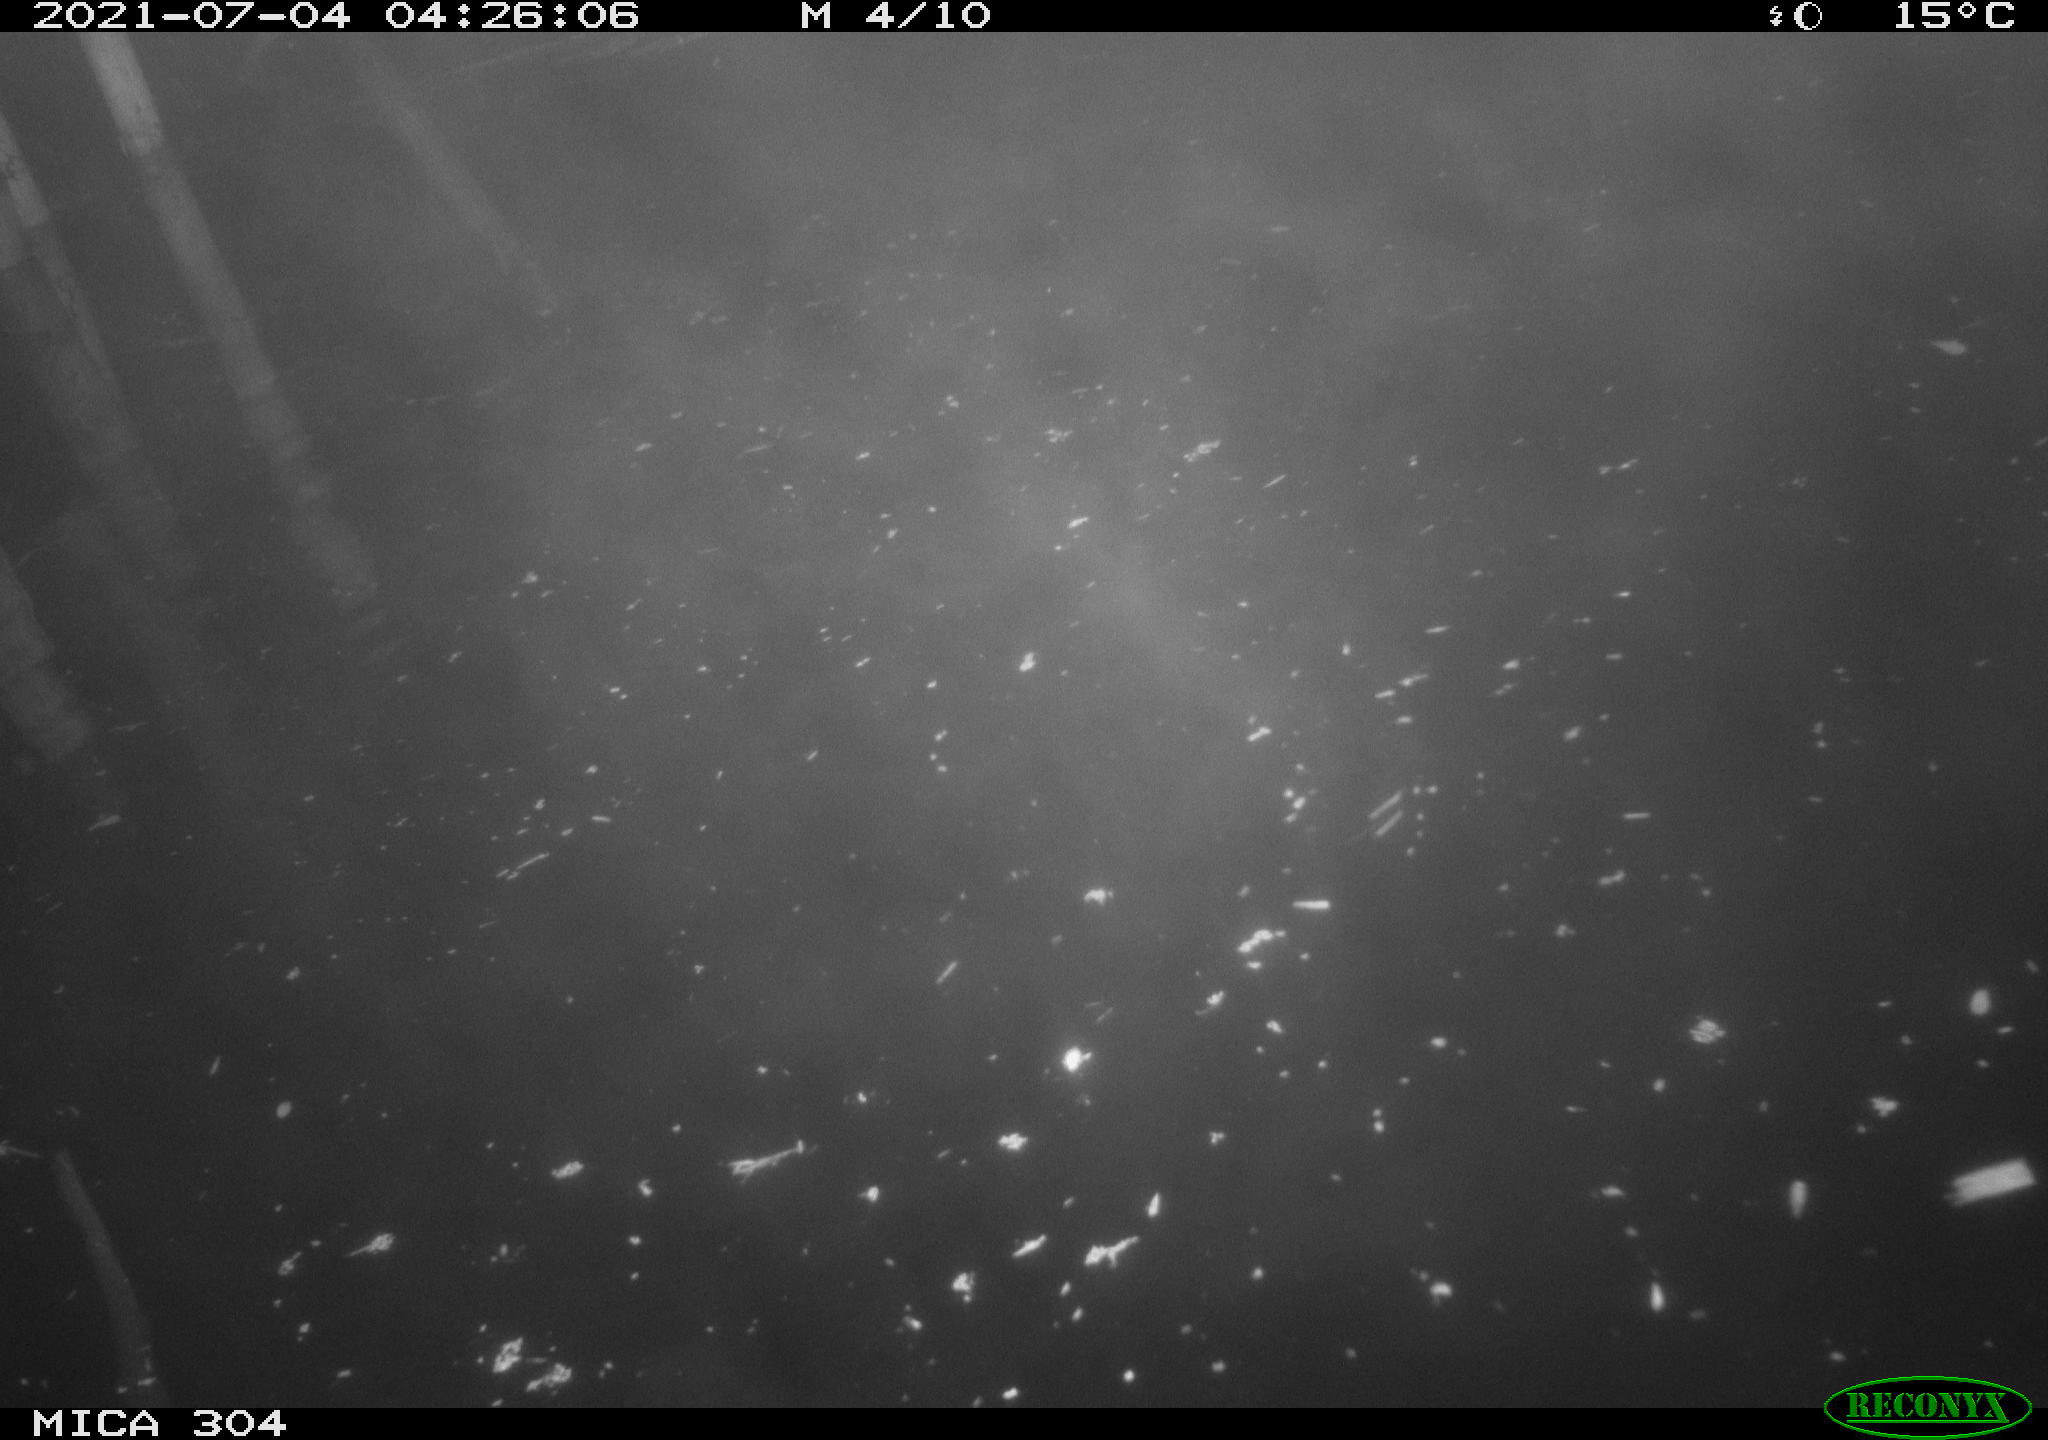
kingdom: Animalia
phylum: Chordata
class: Aves
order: Anseriformes
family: Anatidae
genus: Mareca
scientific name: Mareca strepera
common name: Gadwall
